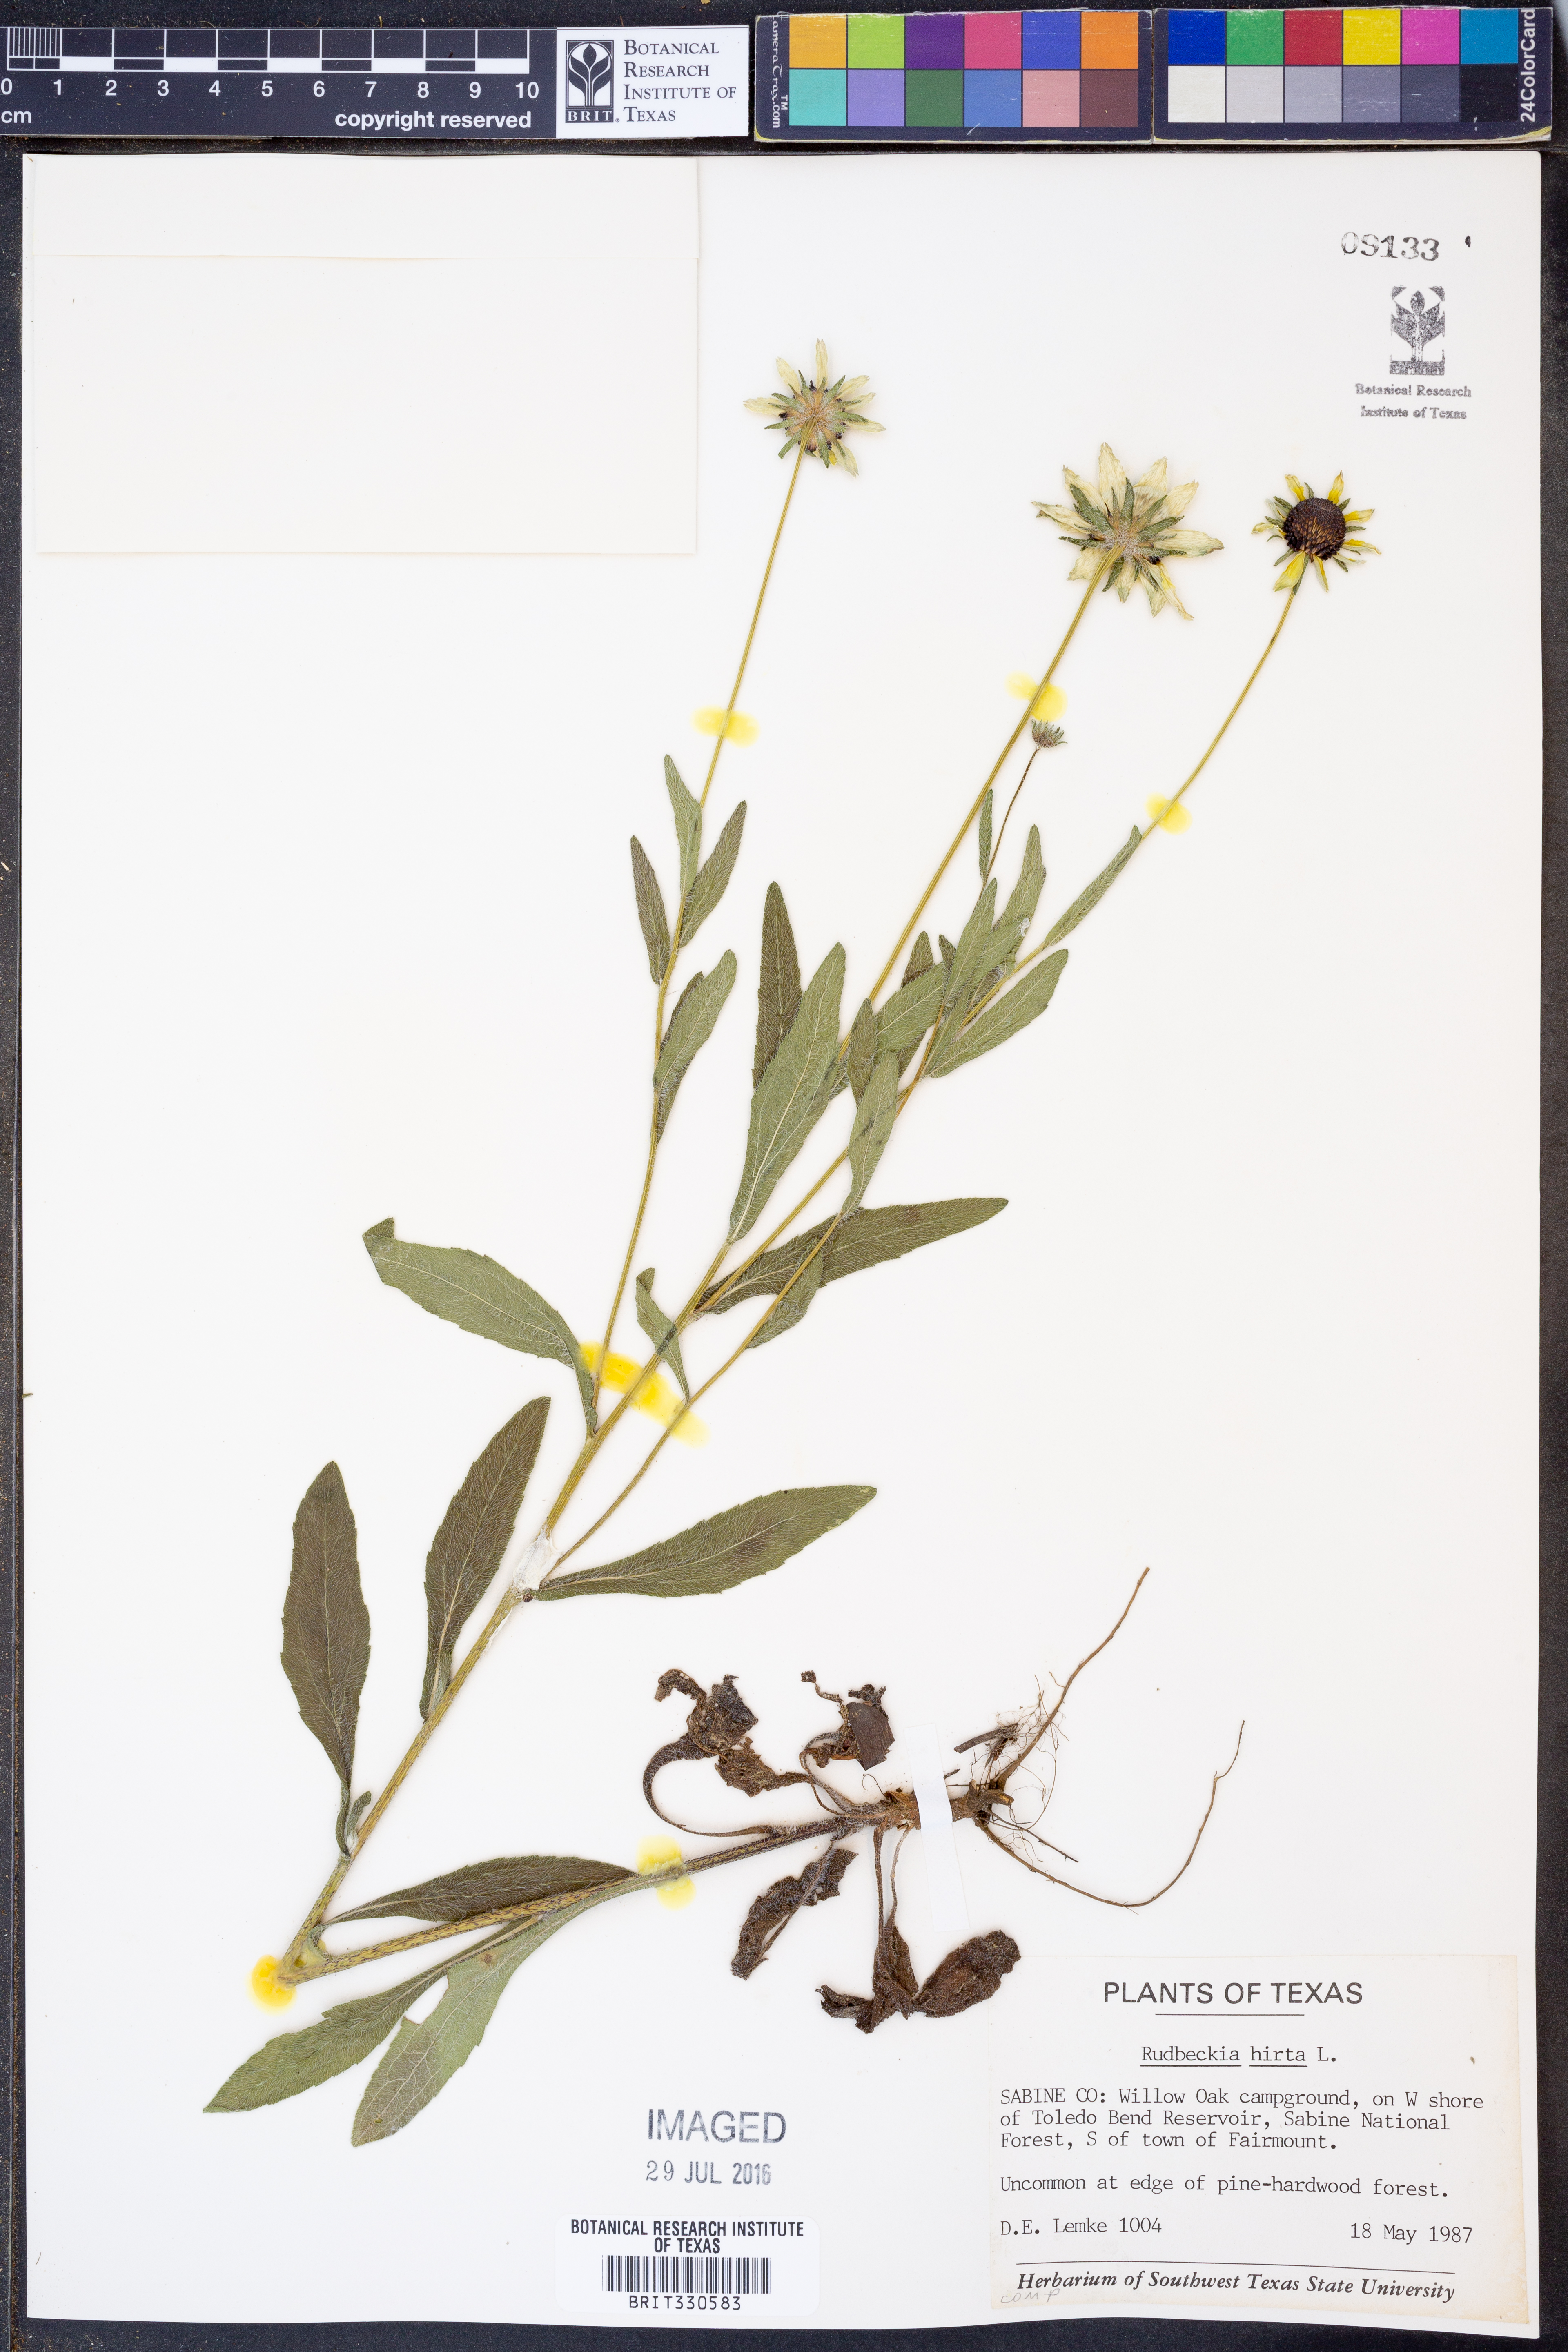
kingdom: Plantae
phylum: Tracheophyta
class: Magnoliopsida
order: Asterales
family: Asteraceae
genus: Rudbeckia
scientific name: Rudbeckia hirta
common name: Black-eyed-susan
